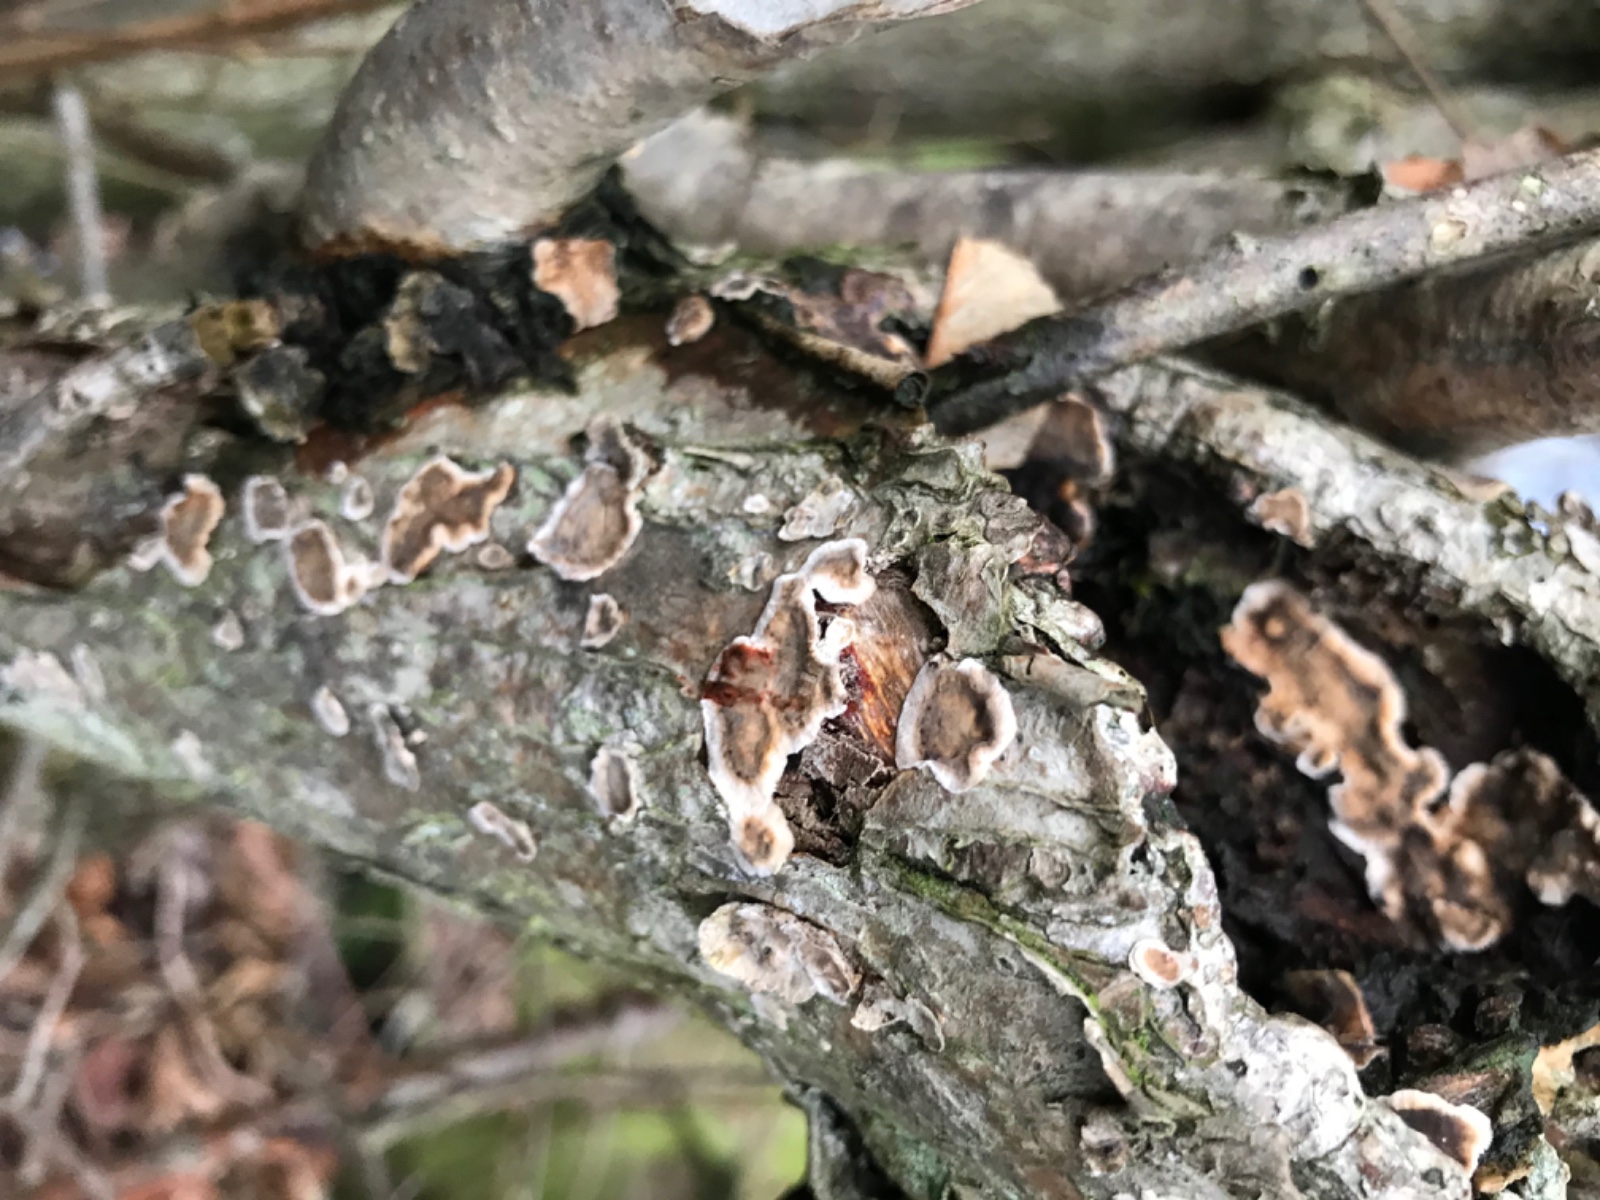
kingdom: Fungi
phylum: Basidiomycota
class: Agaricomycetes
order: Russulales
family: Stereaceae
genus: Stereum
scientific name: Stereum rugosum
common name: rynket lædersvamp
